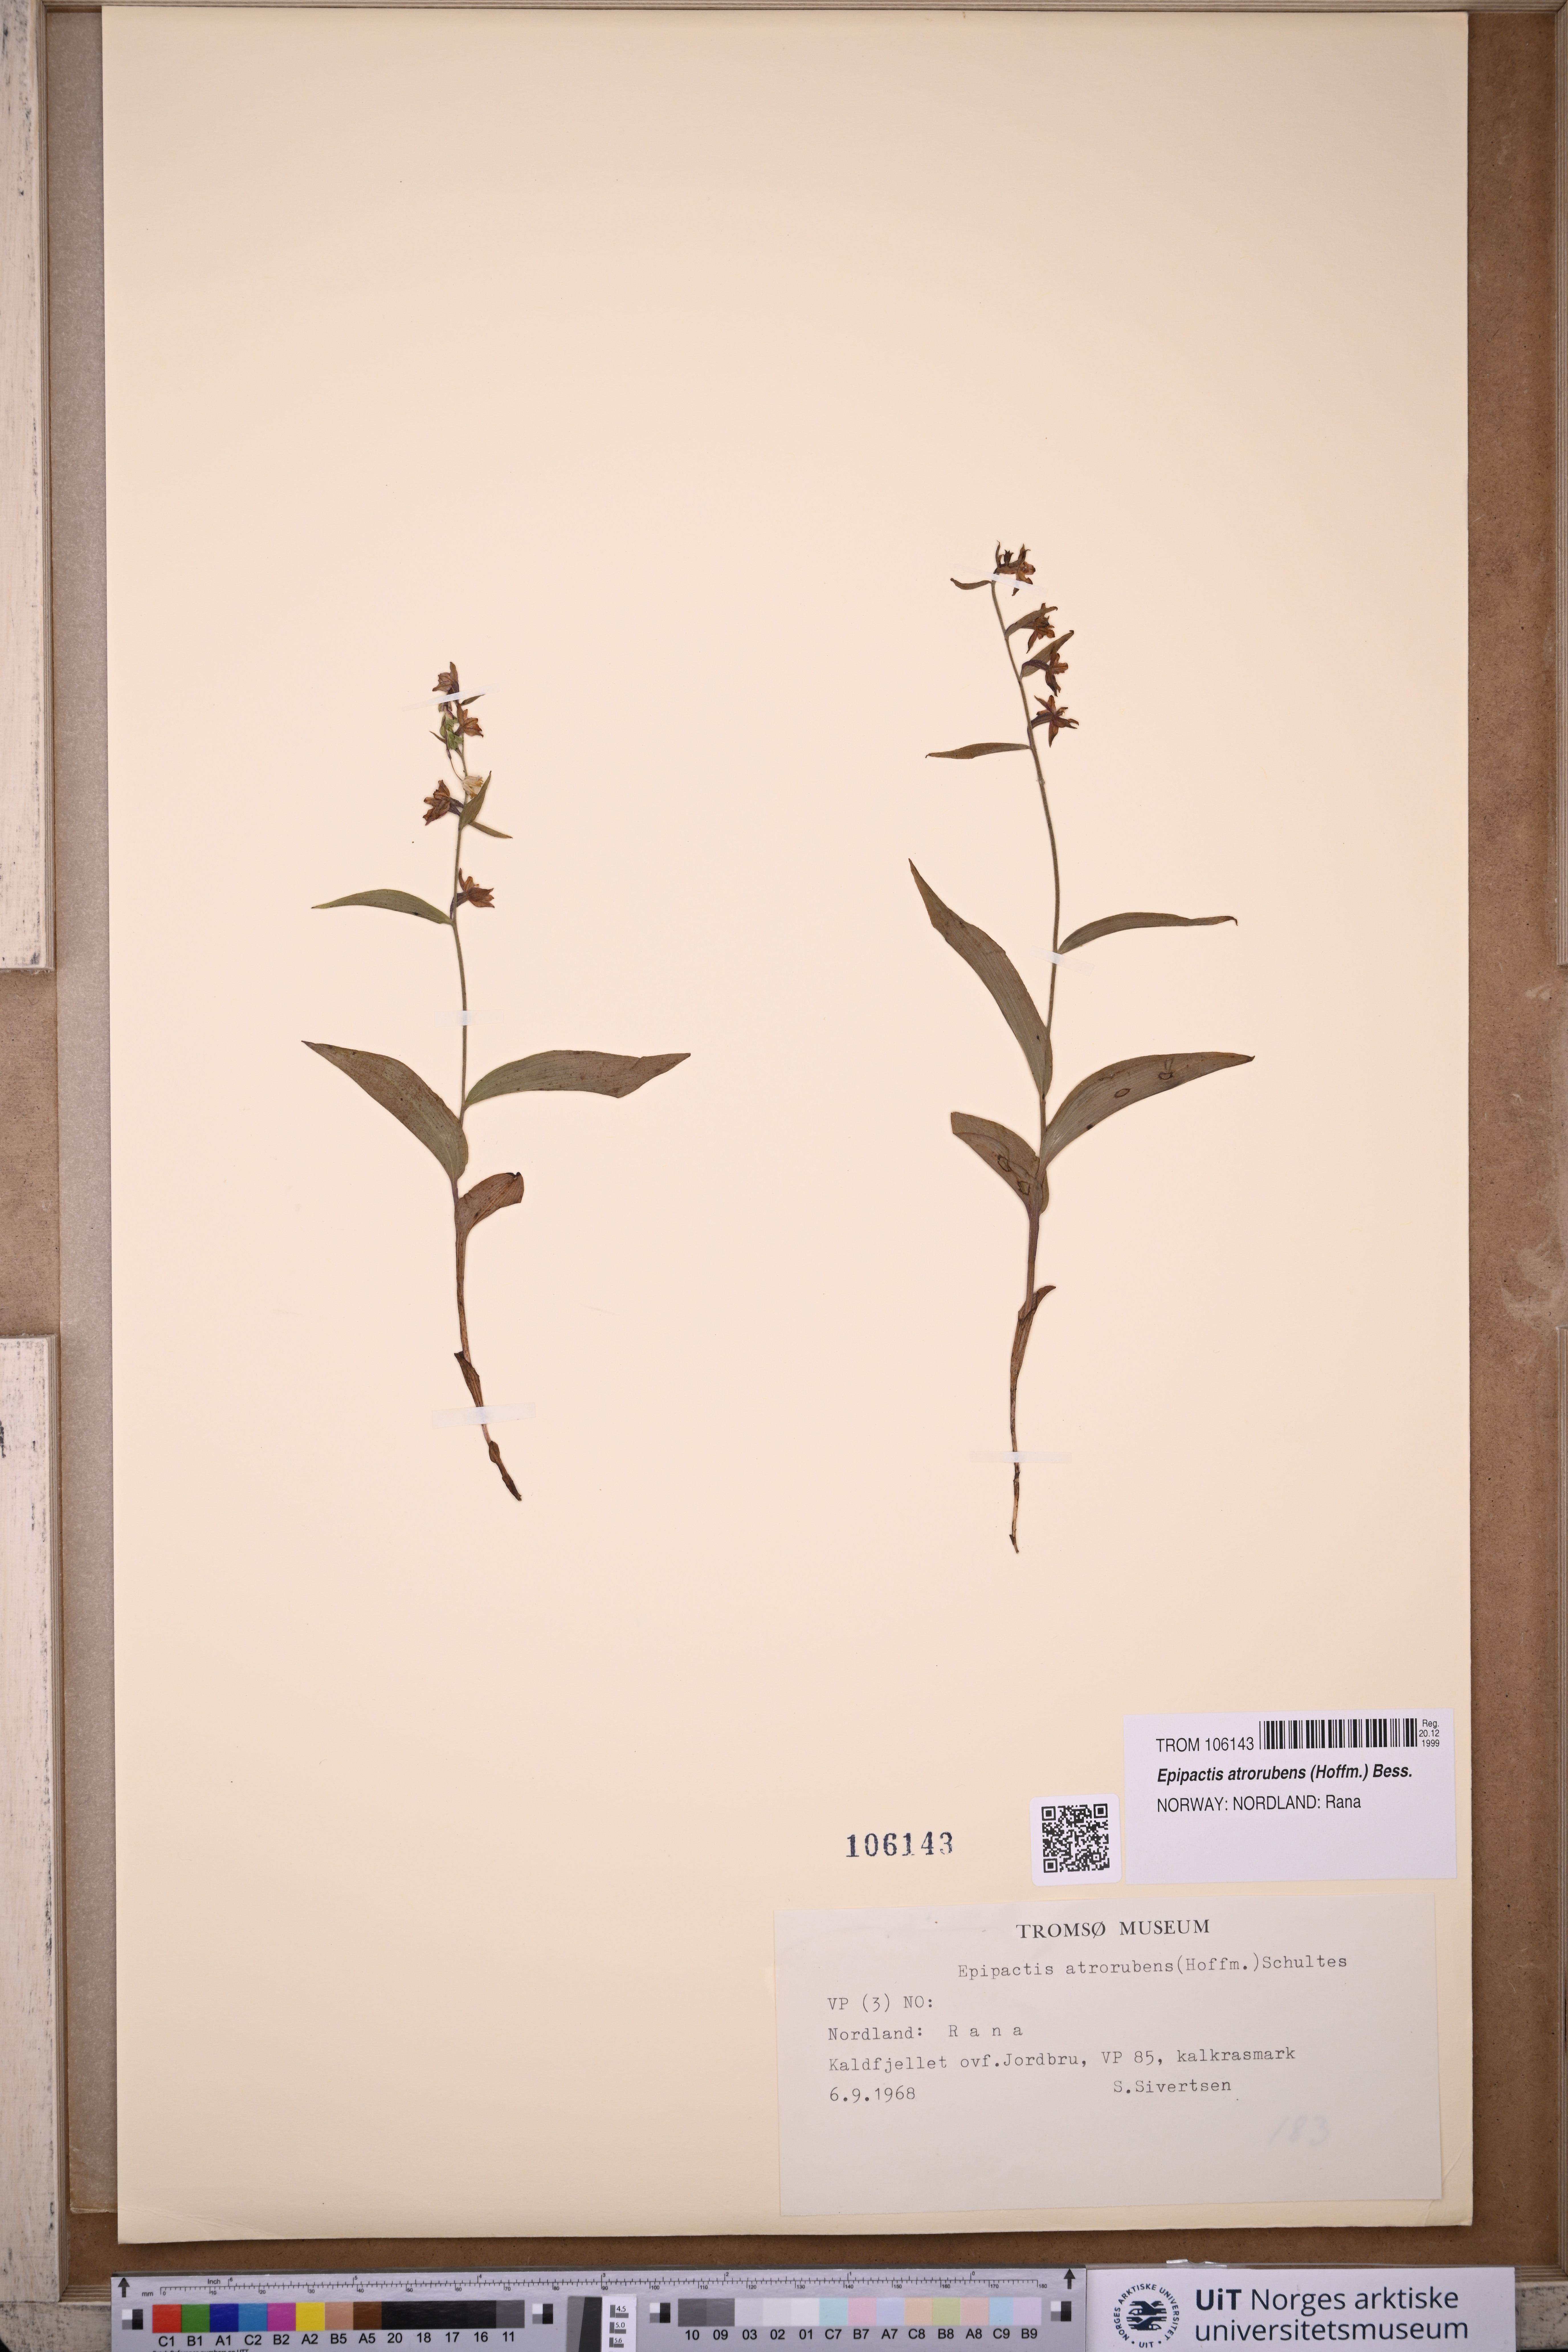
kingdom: Plantae
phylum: Tracheophyta
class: Liliopsida
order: Asparagales
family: Orchidaceae
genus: Epipactis
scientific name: Epipactis atrorubens
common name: Dark-red helleborine
